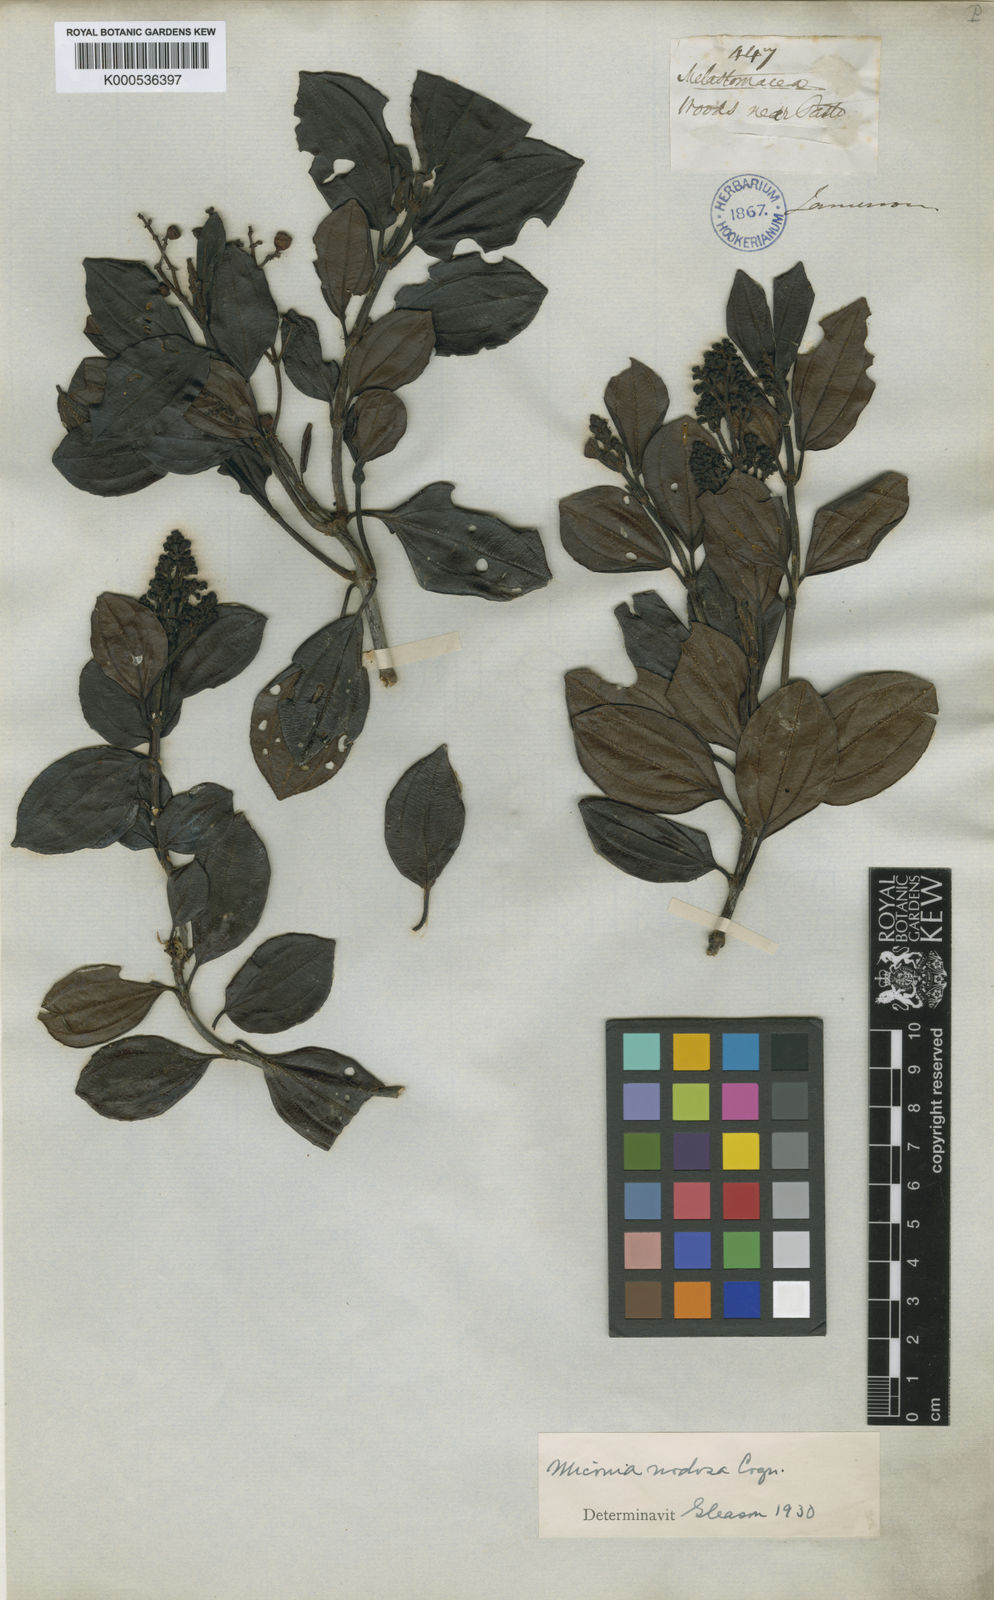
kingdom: Plantae
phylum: Tracheophyta
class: Magnoliopsida
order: Myrtales
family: Melastomataceae
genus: Miconia
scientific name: Miconia nodosa
